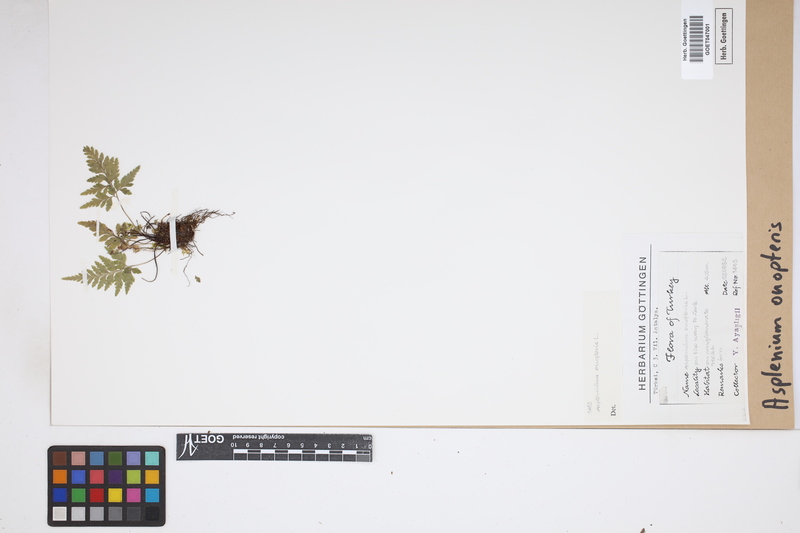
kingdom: Plantae
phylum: Tracheophyta
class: Polypodiopsida
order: Polypodiales
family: Aspleniaceae
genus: Asplenium
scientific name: Asplenium onopteris
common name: Irish spleenwort
